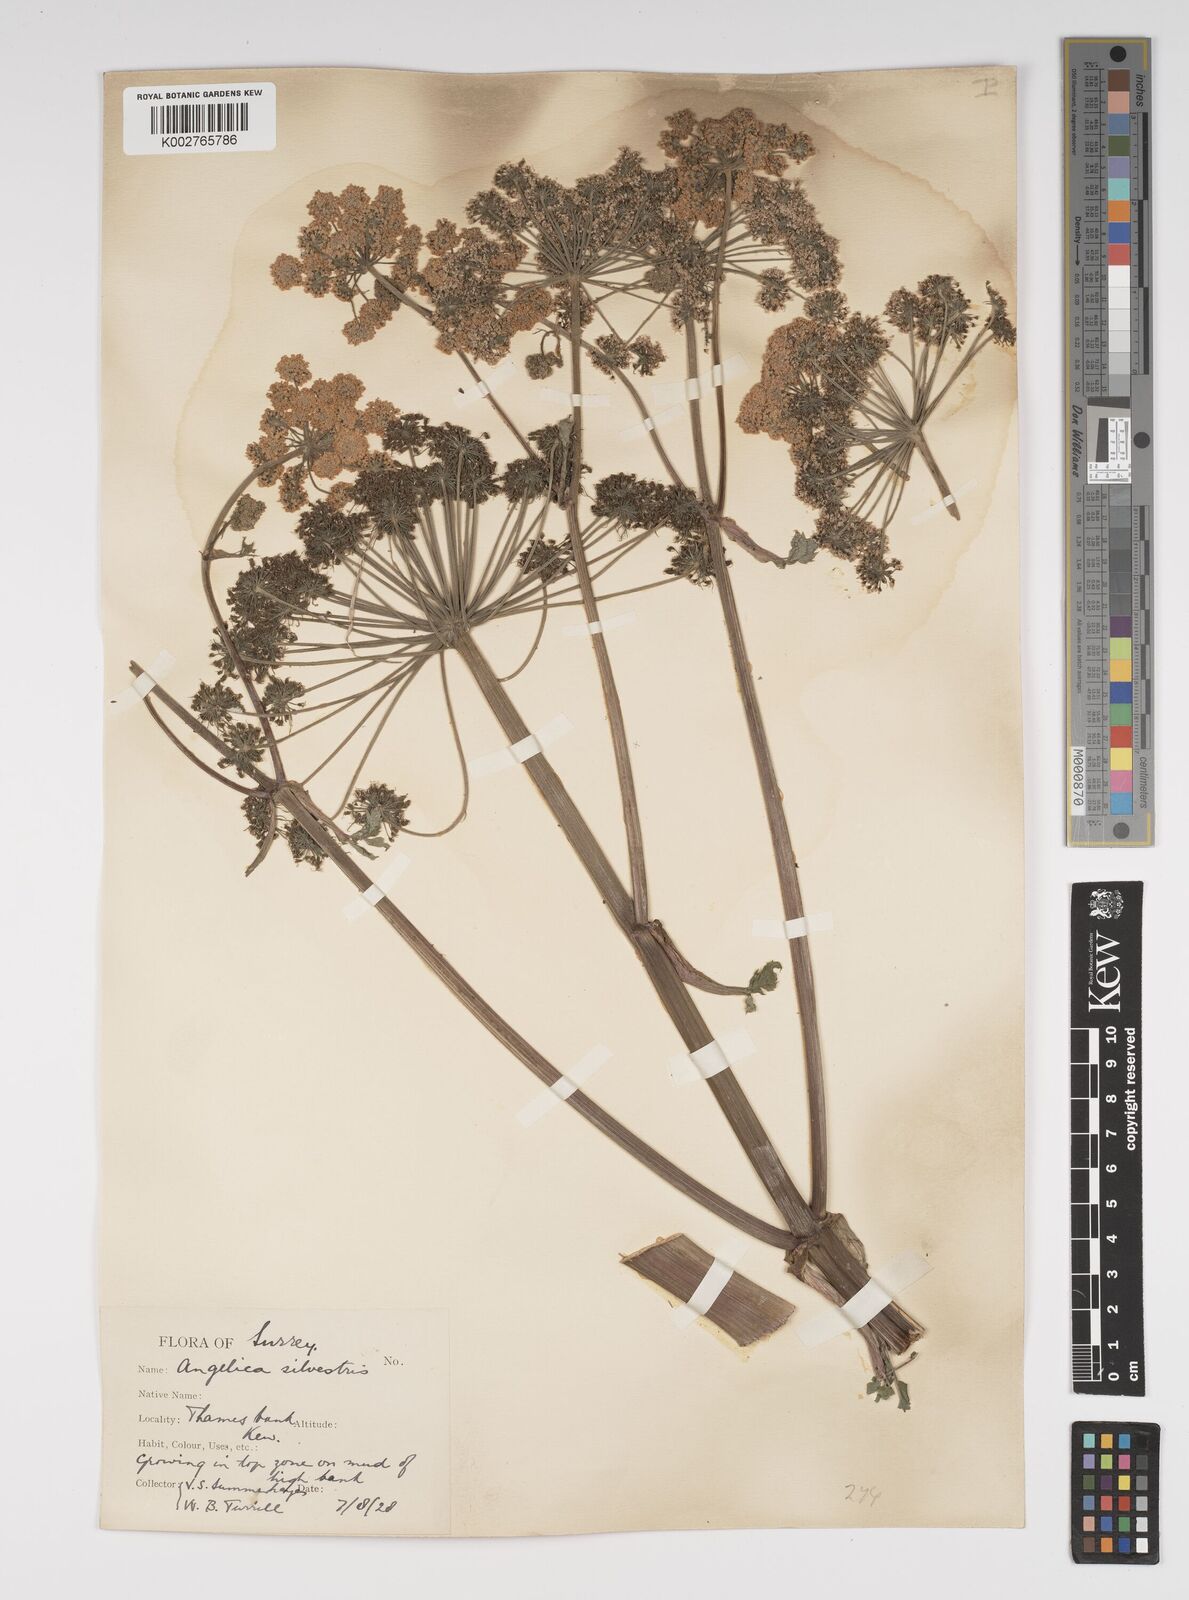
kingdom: Plantae
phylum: Tracheophyta
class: Magnoliopsida
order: Apiales
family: Apiaceae
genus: Angelica
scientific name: Angelica sylvestris
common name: Wild angelica
